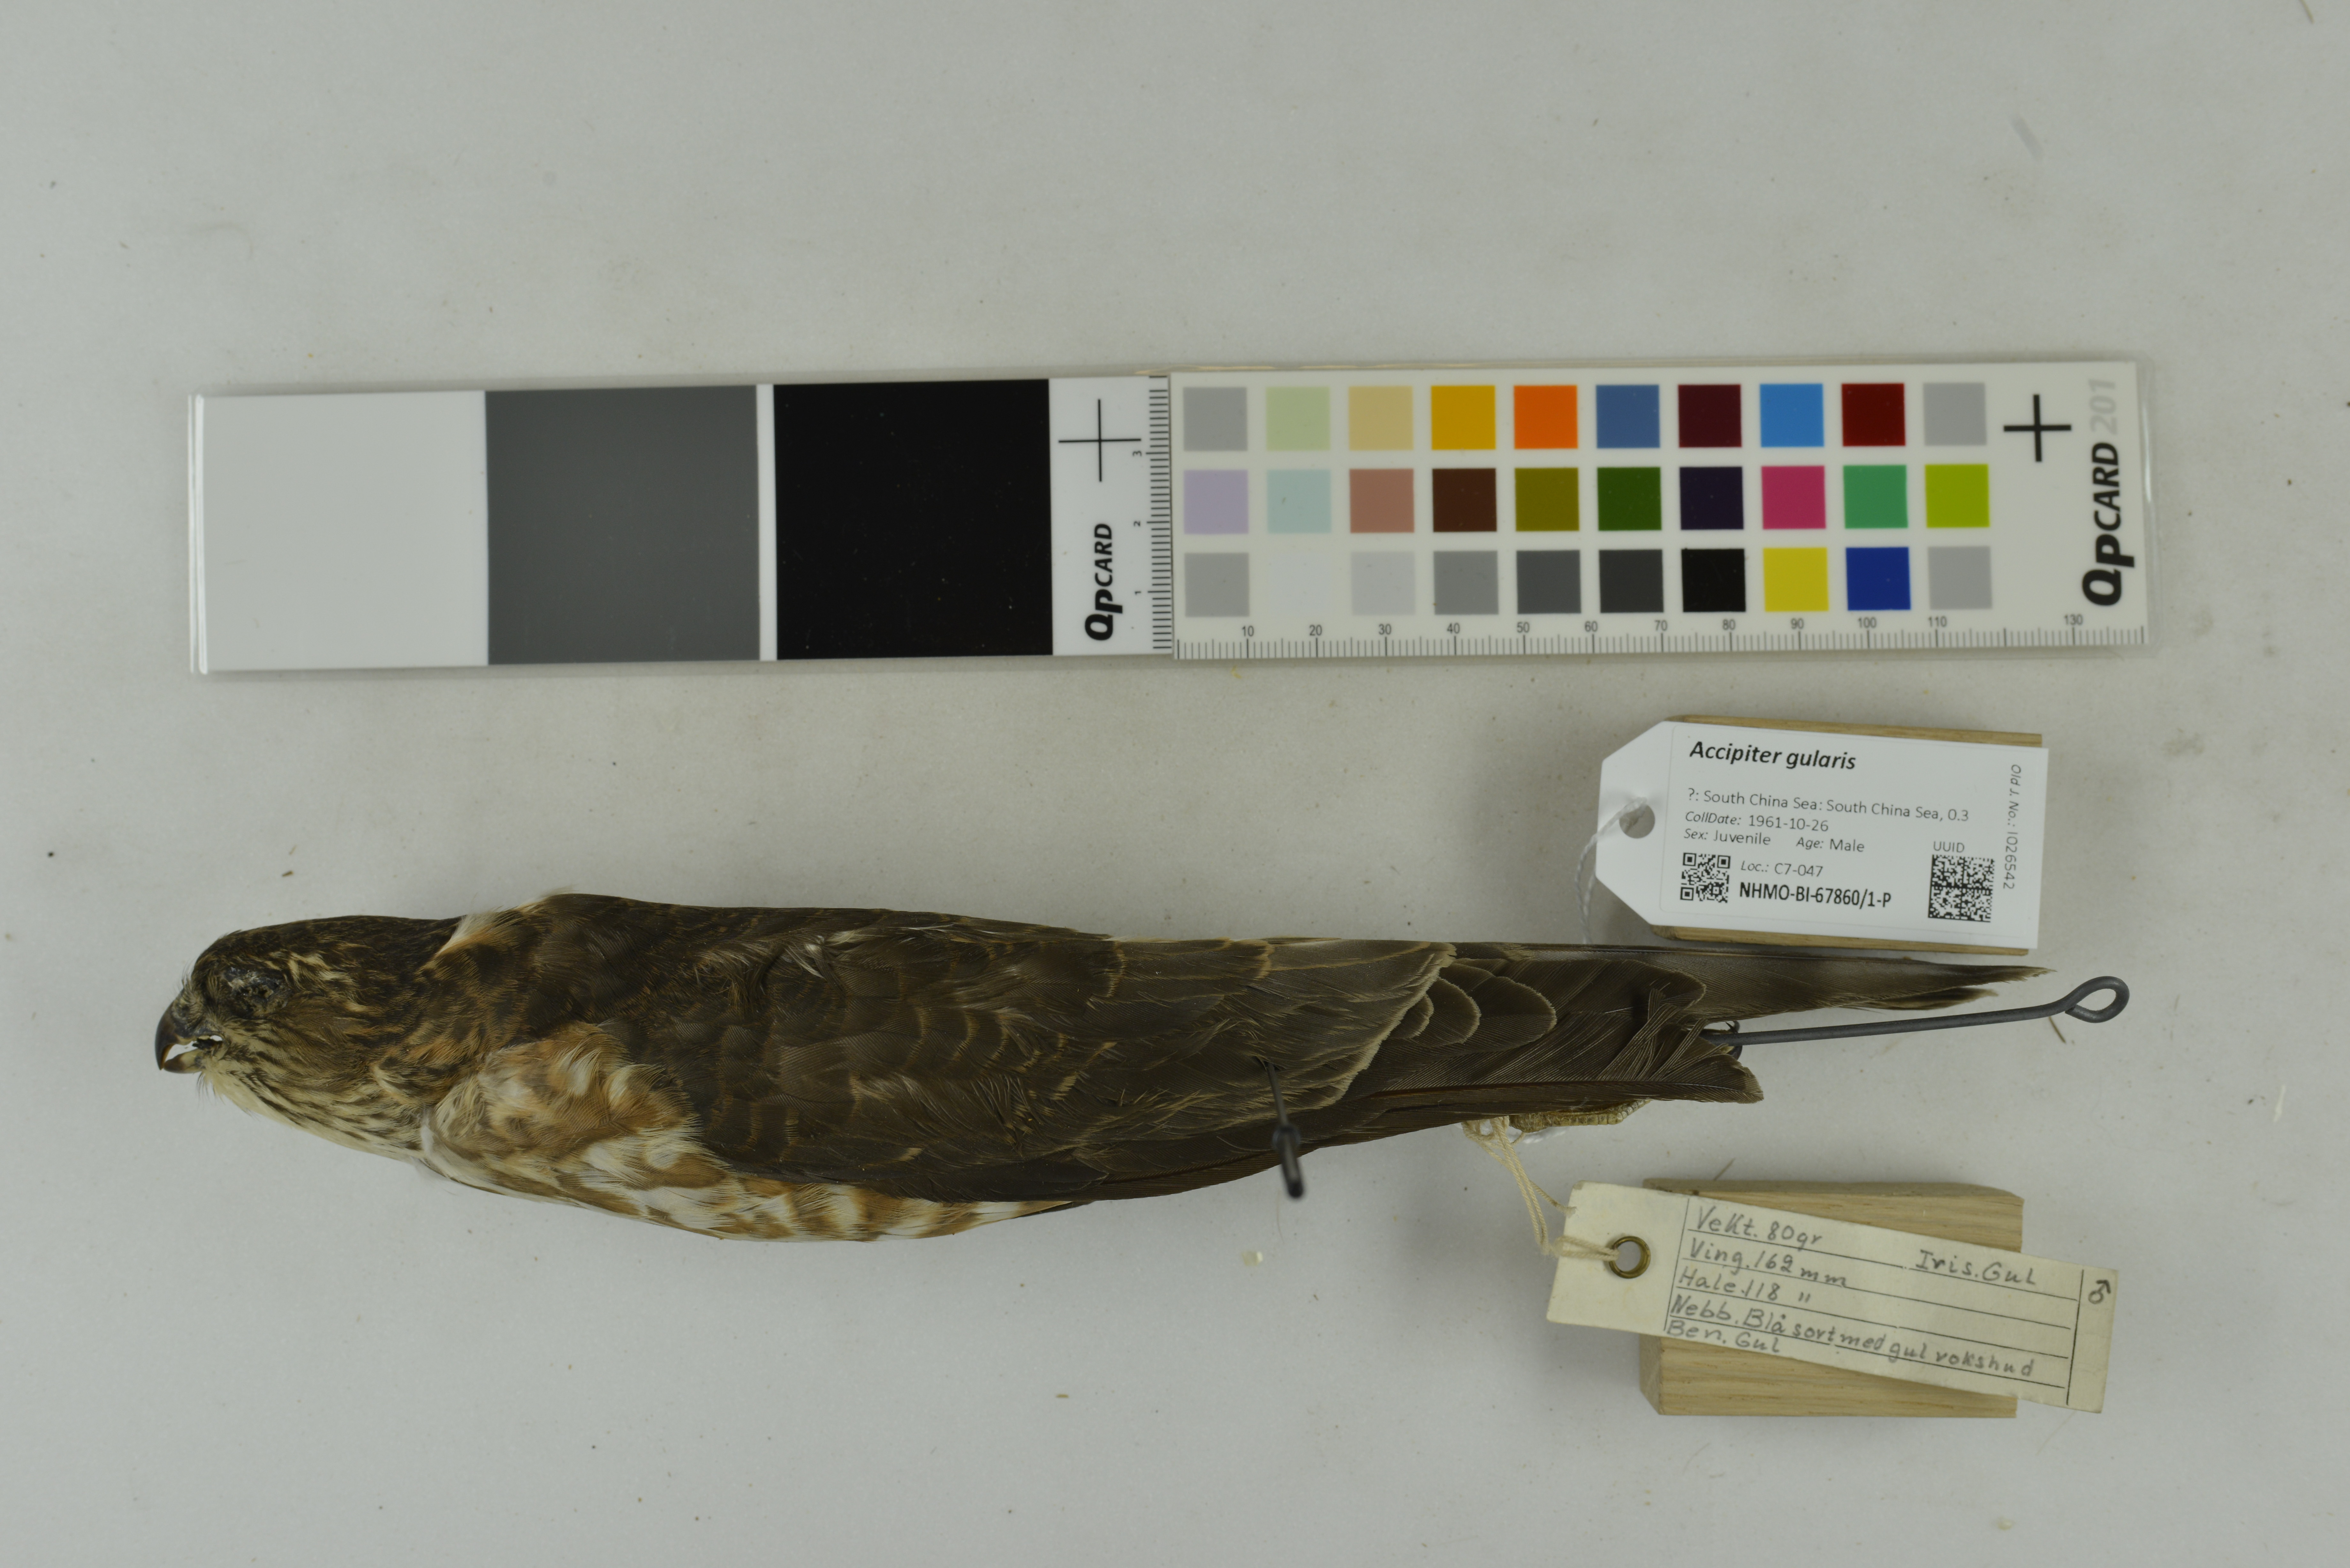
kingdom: Animalia
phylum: Chordata
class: Aves
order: Accipitriformes
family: Accipitridae
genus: Accipiter
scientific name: Accipiter gularis
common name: Japanese sparrowhawk
